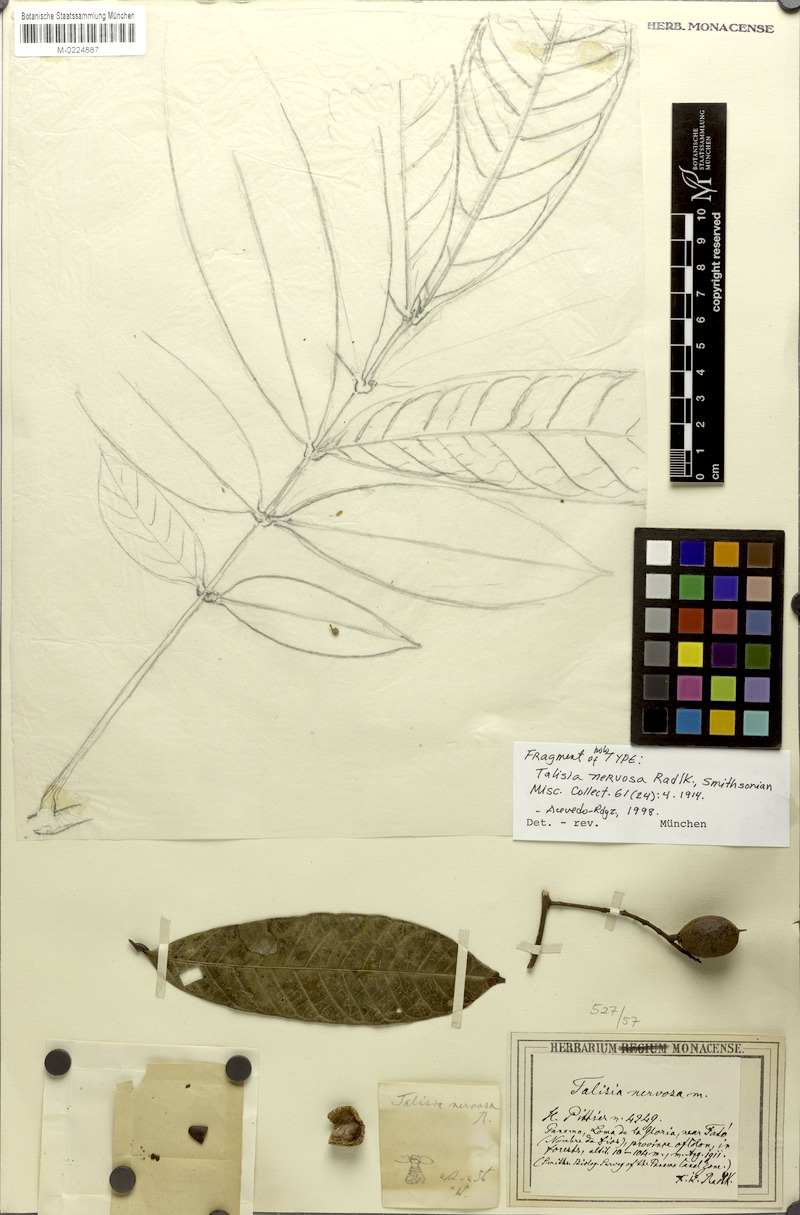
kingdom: Plantae
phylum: Tracheophyta
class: Magnoliopsida
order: Sapindales
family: Sapindaceae
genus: Talisia
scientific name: Talisia nervosa
